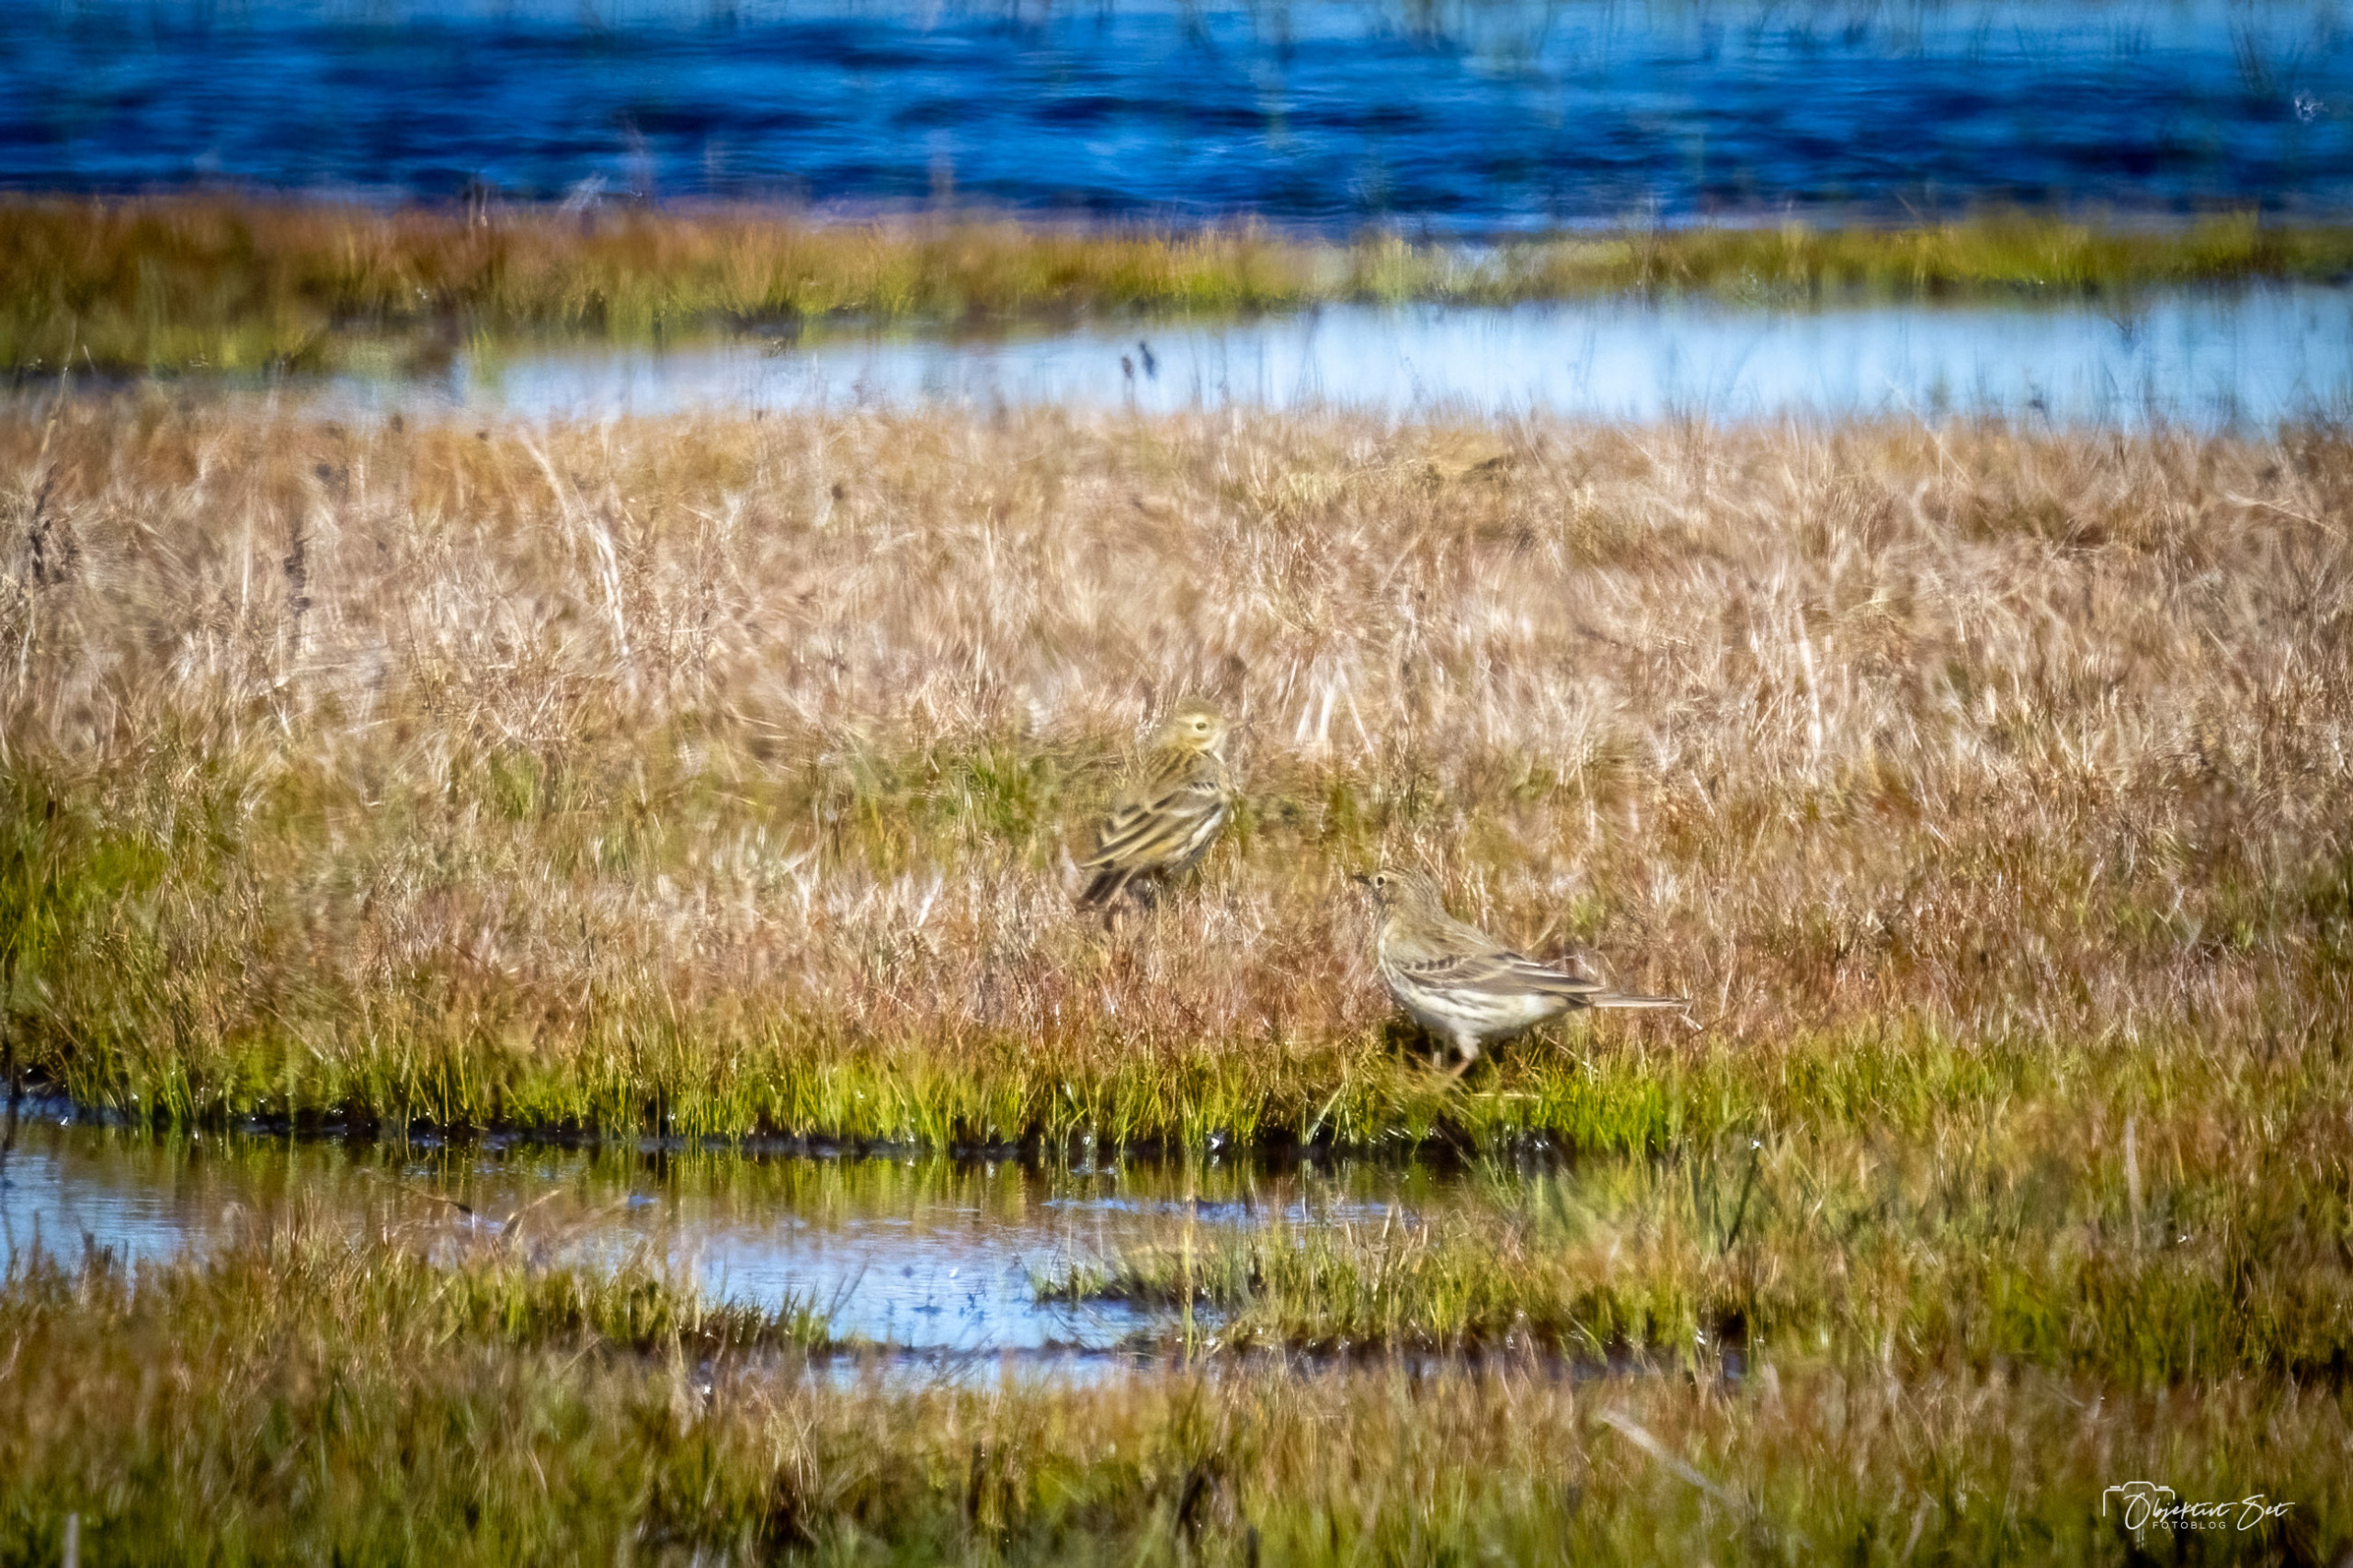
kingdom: Animalia
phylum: Chordata
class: Aves
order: Passeriformes
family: Motacillidae
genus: Anthus
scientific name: Anthus pratensis
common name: Engpiber
